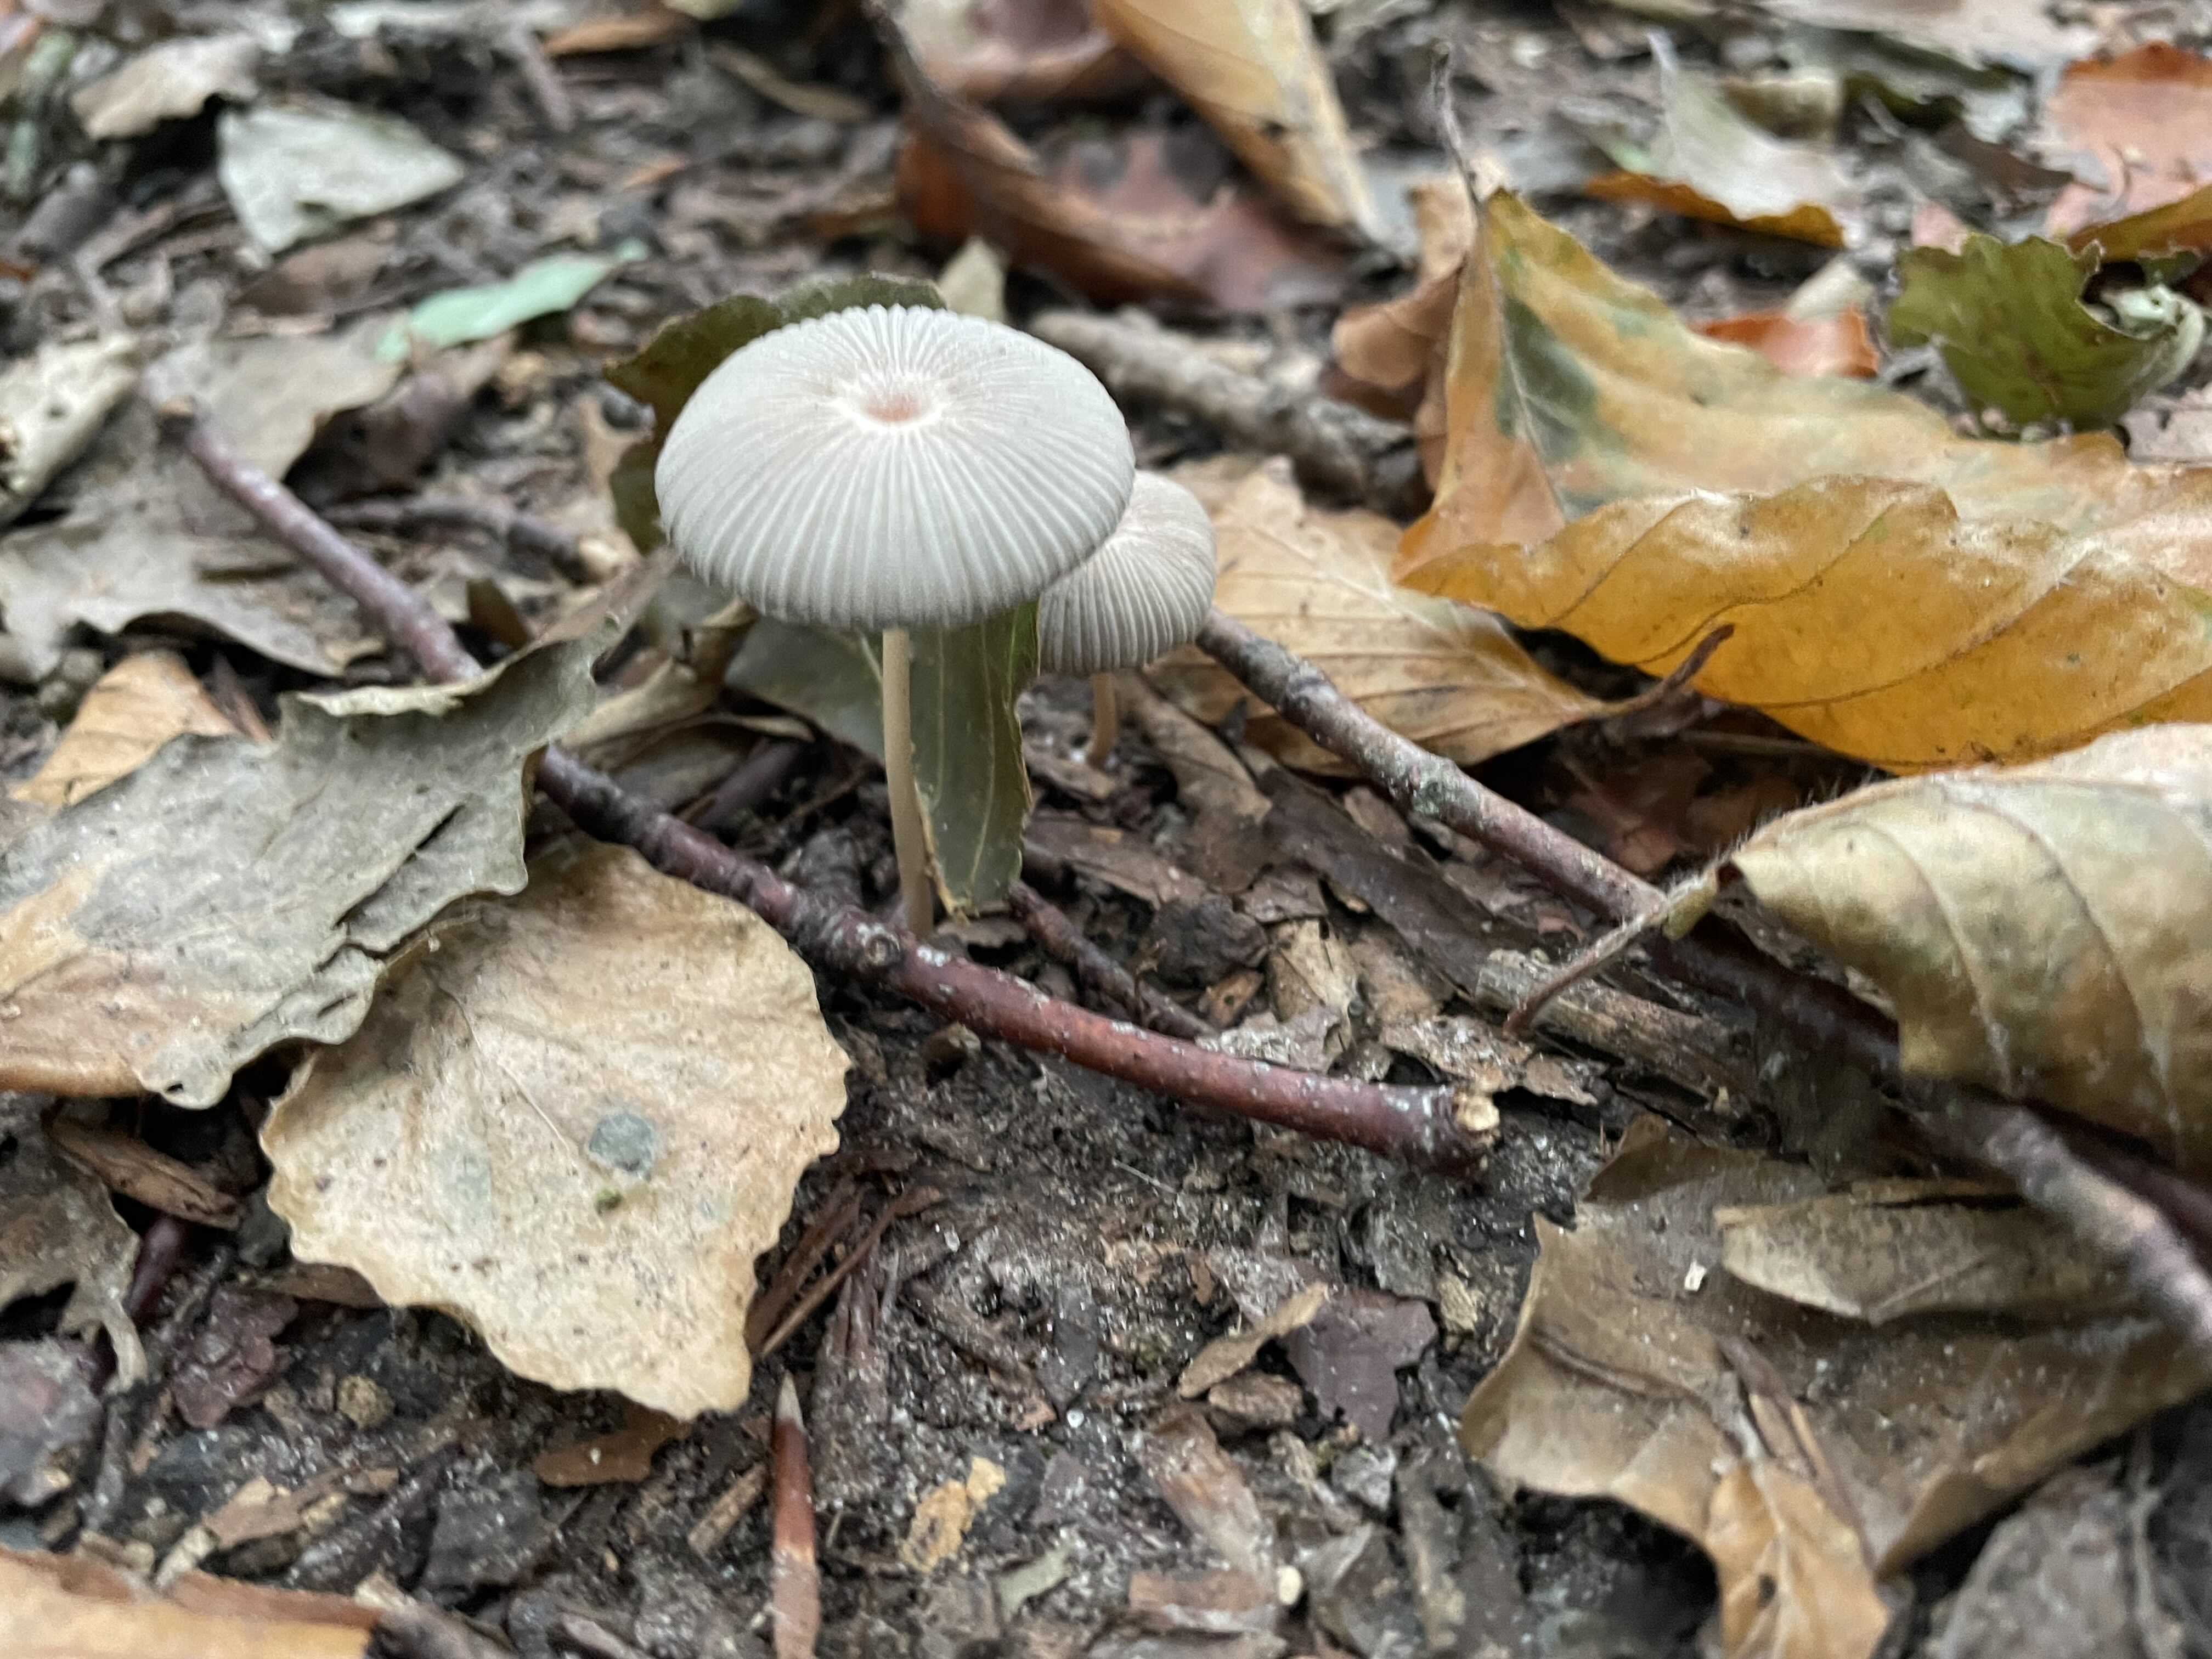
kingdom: Fungi
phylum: Basidiomycota
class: Agaricomycetes
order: Agaricales
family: Psathyrellaceae
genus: Parasola
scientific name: Parasola
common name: hjulhat
